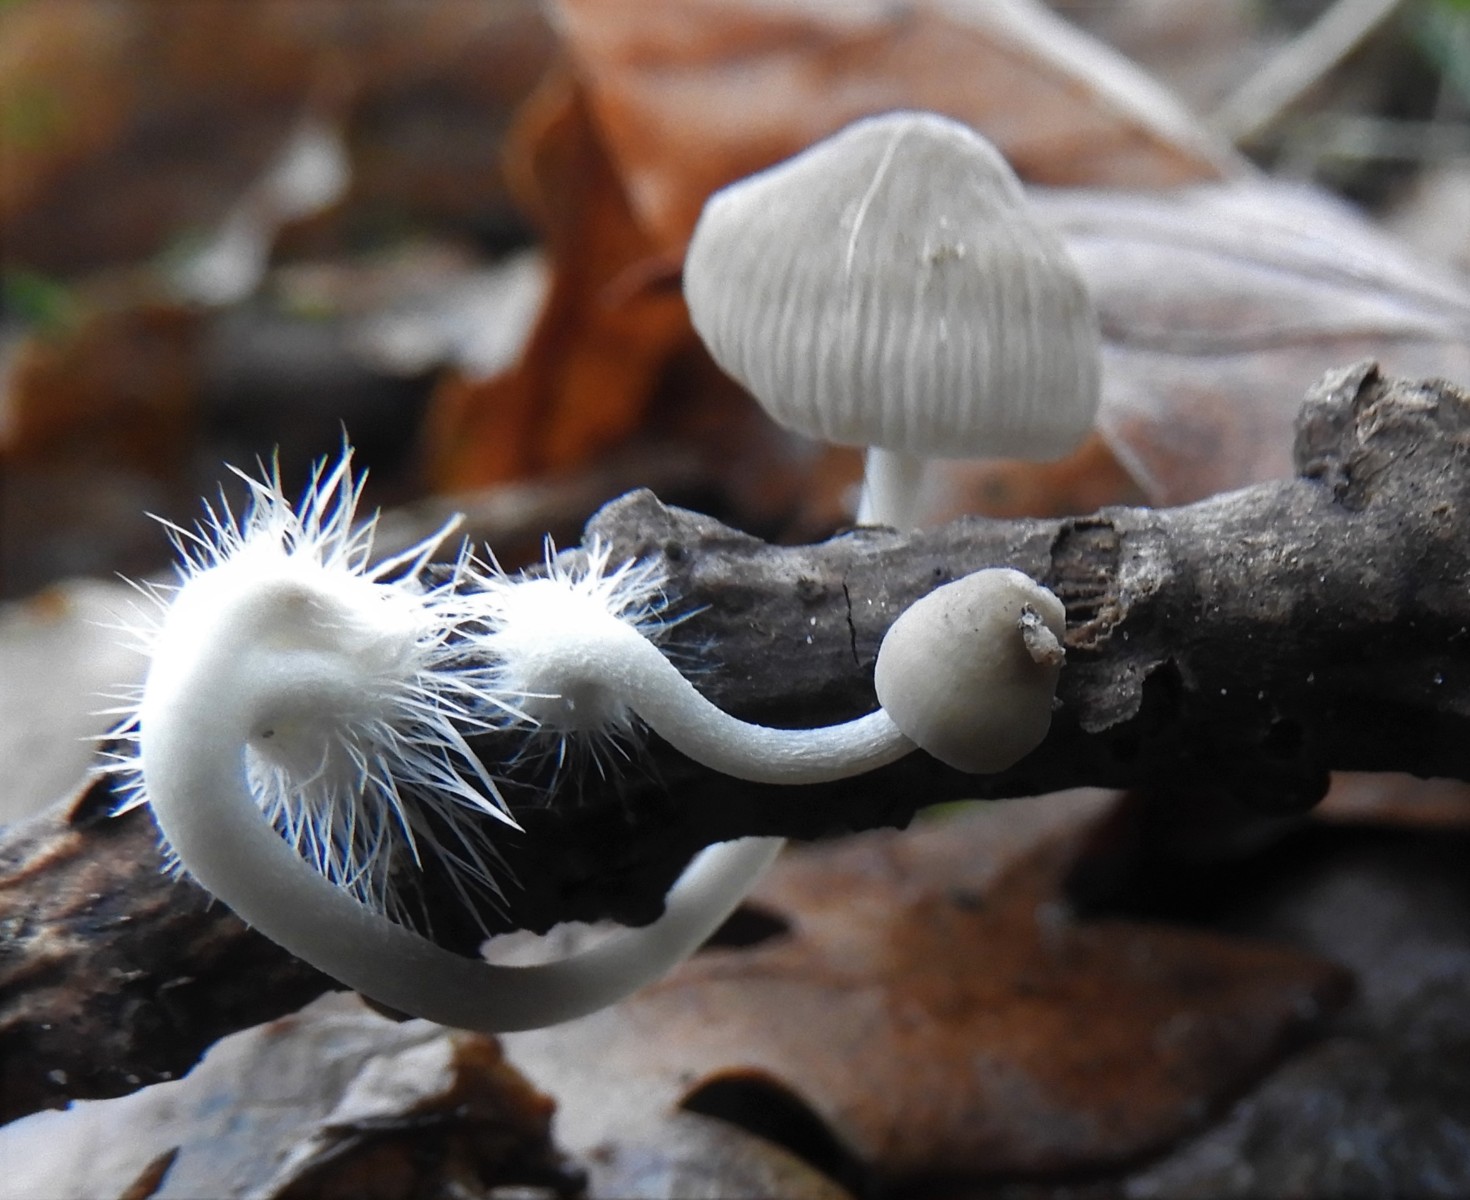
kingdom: Fungi
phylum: Basidiomycota
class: Agaricomycetes
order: Agaricales
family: Mycenaceae
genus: Mycena
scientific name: Mycena polygramma
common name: mangestribet huesvamp
